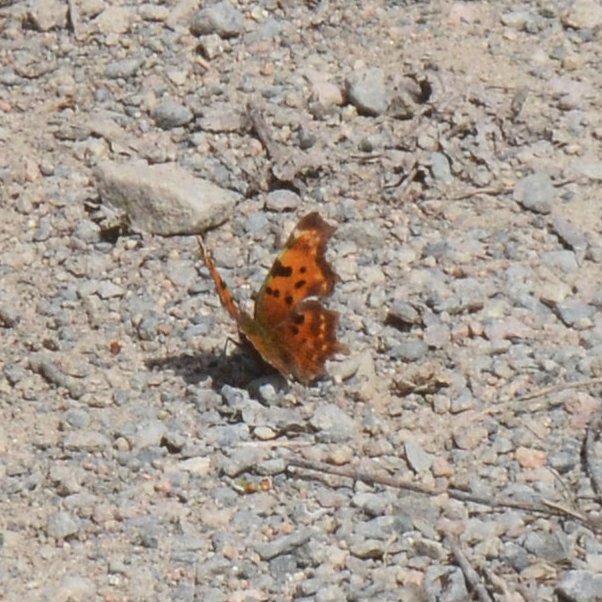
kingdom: Animalia
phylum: Arthropoda
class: Insecta
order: Lepidoptera
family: Nymphalidae
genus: Polygonia
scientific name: Polygonia faunus
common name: Green Comma
